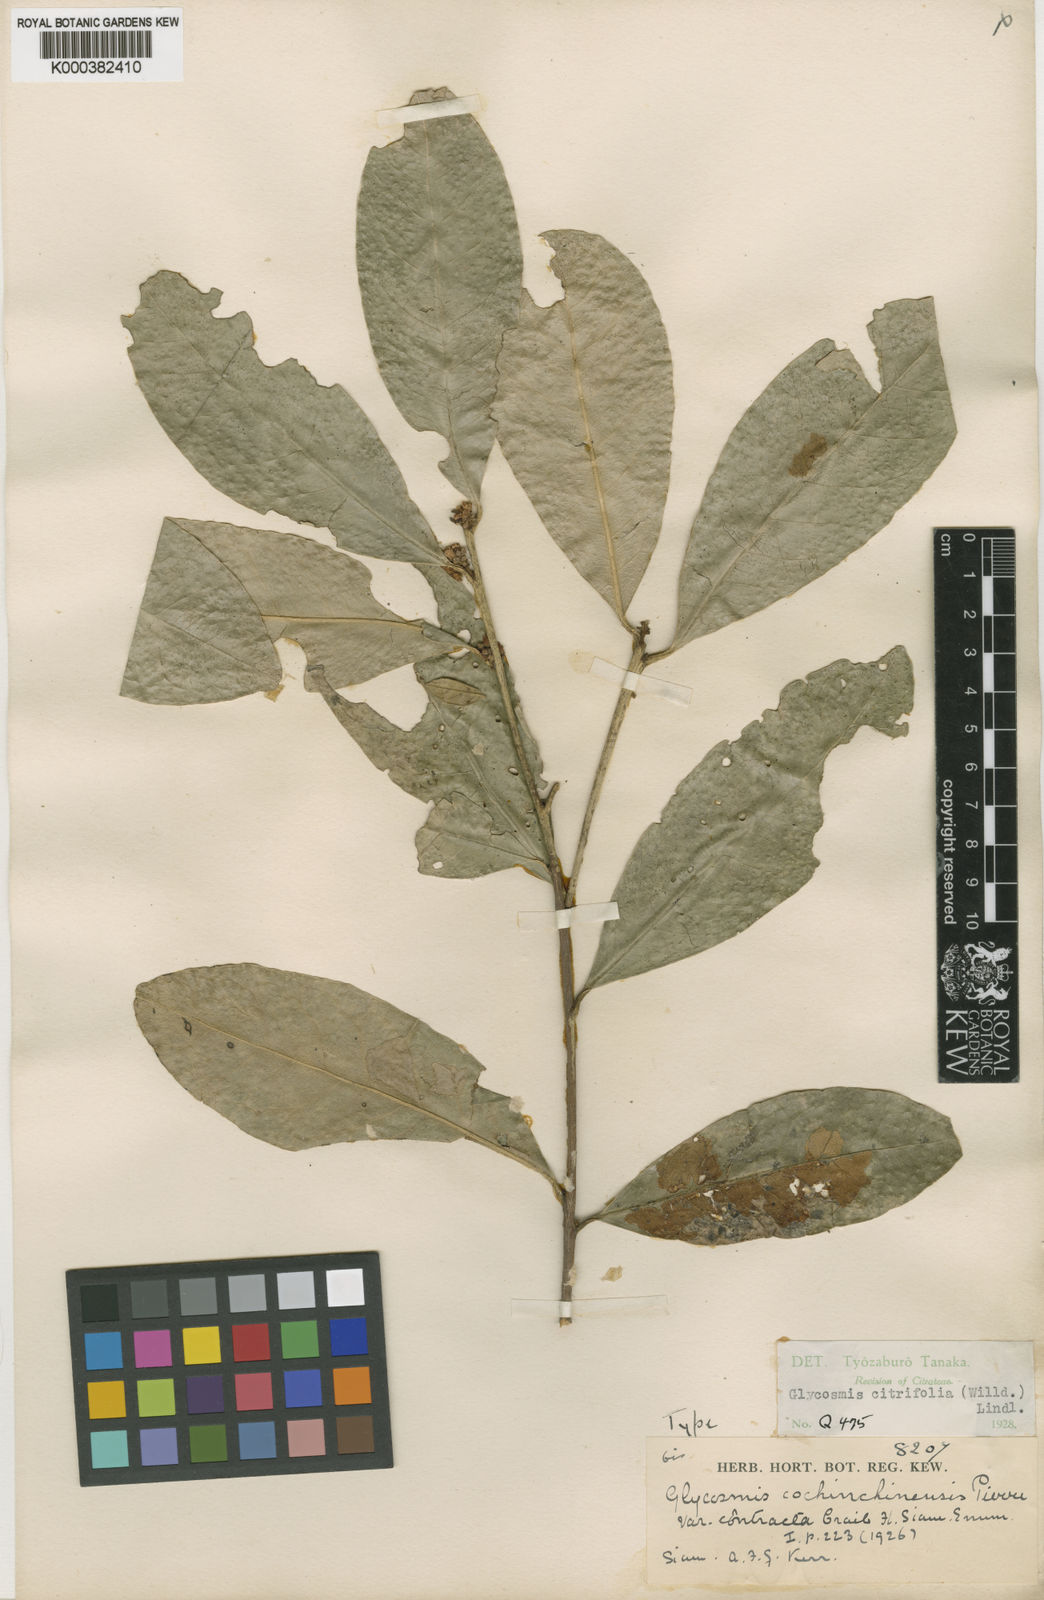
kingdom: Plantae
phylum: Tracheophyta
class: Magnoliopsida
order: Sapindales
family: Rutaceae
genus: Glycosmis
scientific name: Glycosmis
